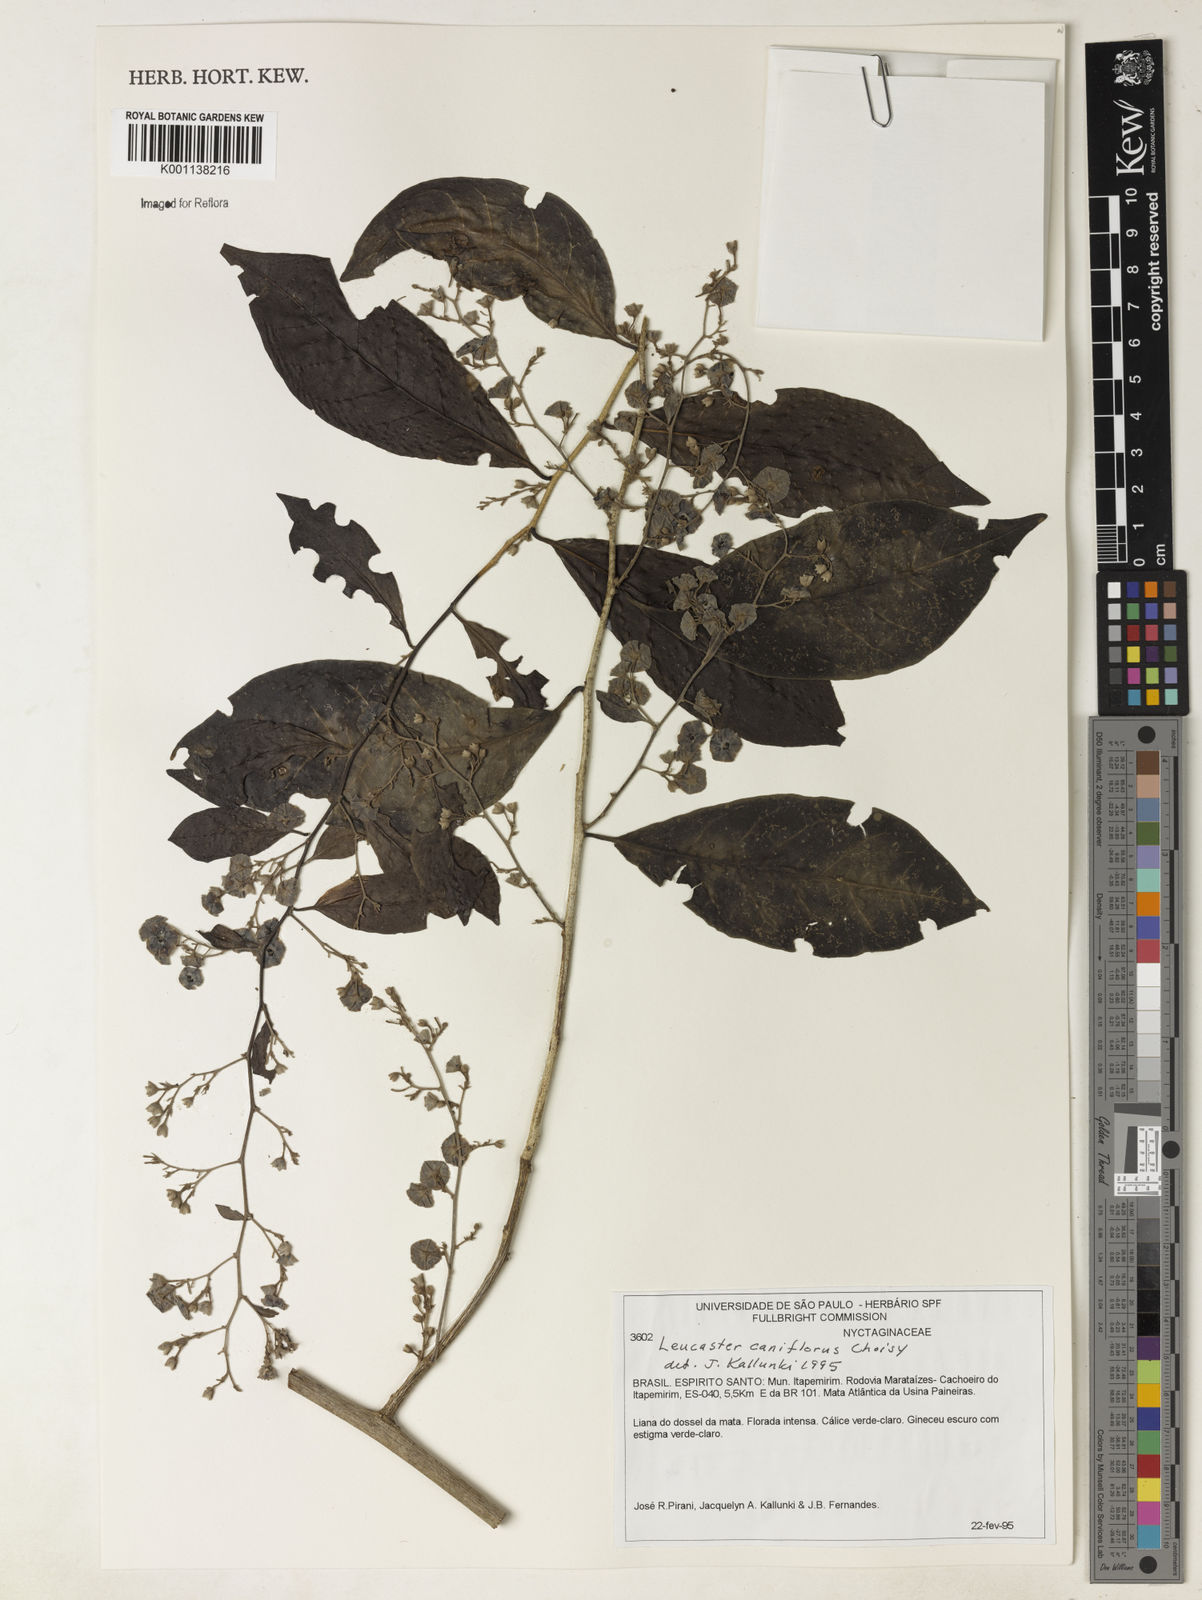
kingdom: Plantae
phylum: Tracheophyta
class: Magnoliopsida
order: Caryophyllales
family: Nyctaginaceae
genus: Leucaster
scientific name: Leucaster caniflorus
